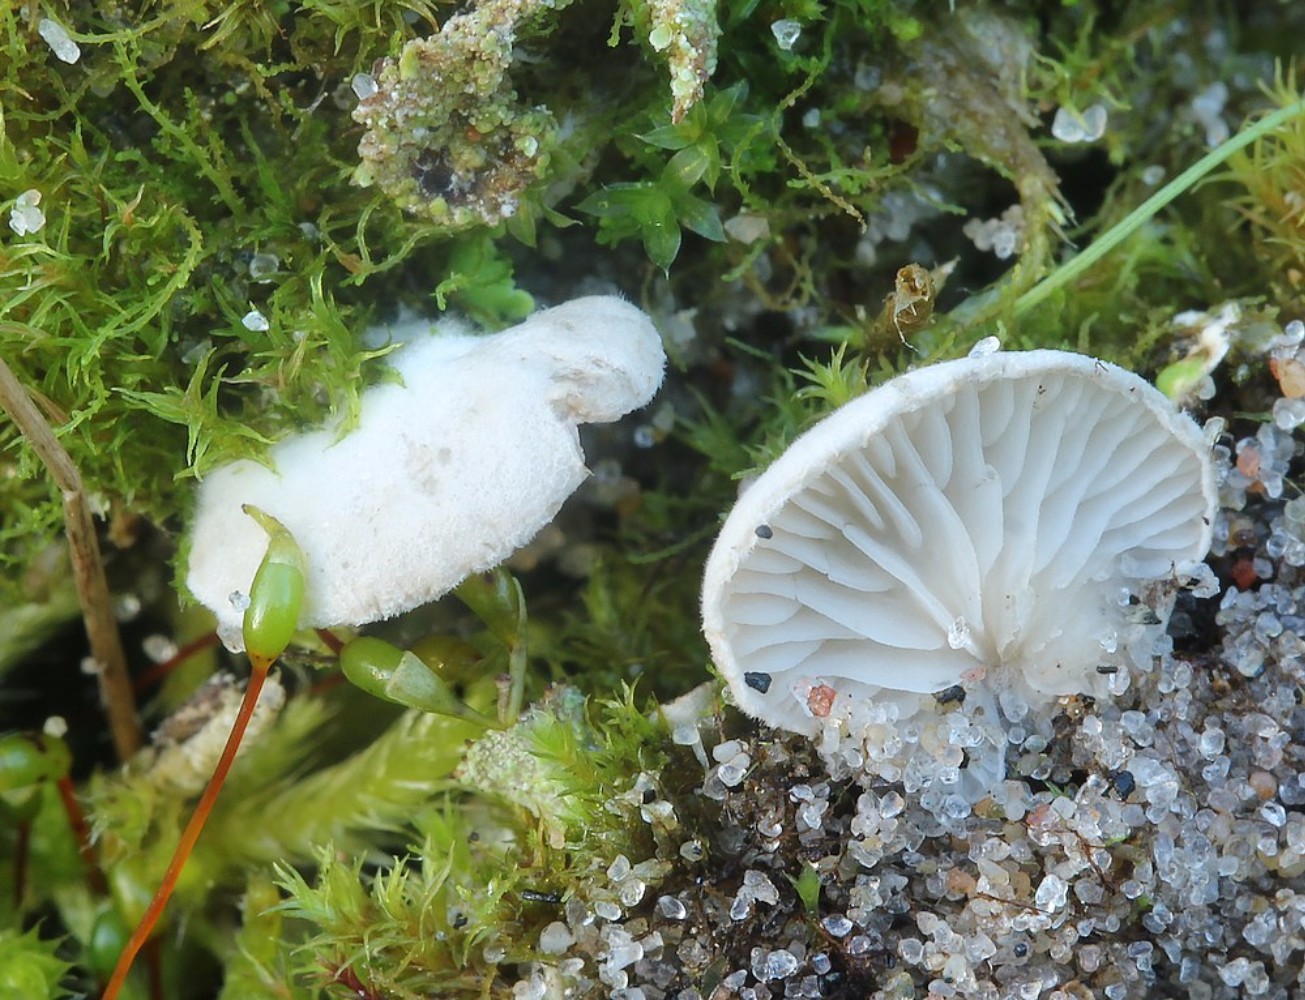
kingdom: Fungi
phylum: Basidiomycota
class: Agaricomycetes
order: Agaricales
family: Entolomataceae
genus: Clitopilus
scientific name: Clitopilus hobsonii
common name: Miller's oysterling
